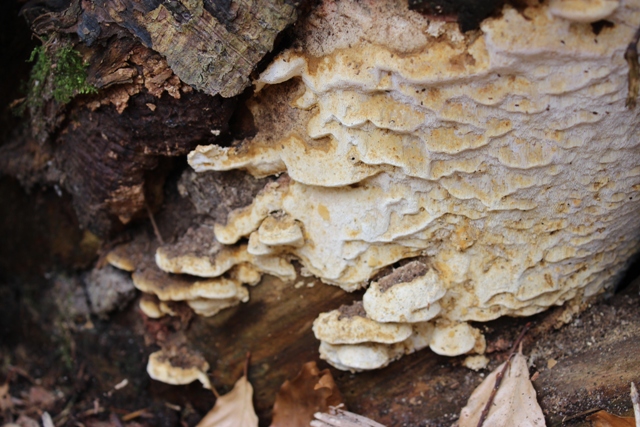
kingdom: Fungi
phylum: Basidiomycota
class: Agaricomycetes
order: Polyporales
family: Fomitopsidaceae
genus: Neoantrodia
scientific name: Neoantrodia serialis
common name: række-sejporesvamp
